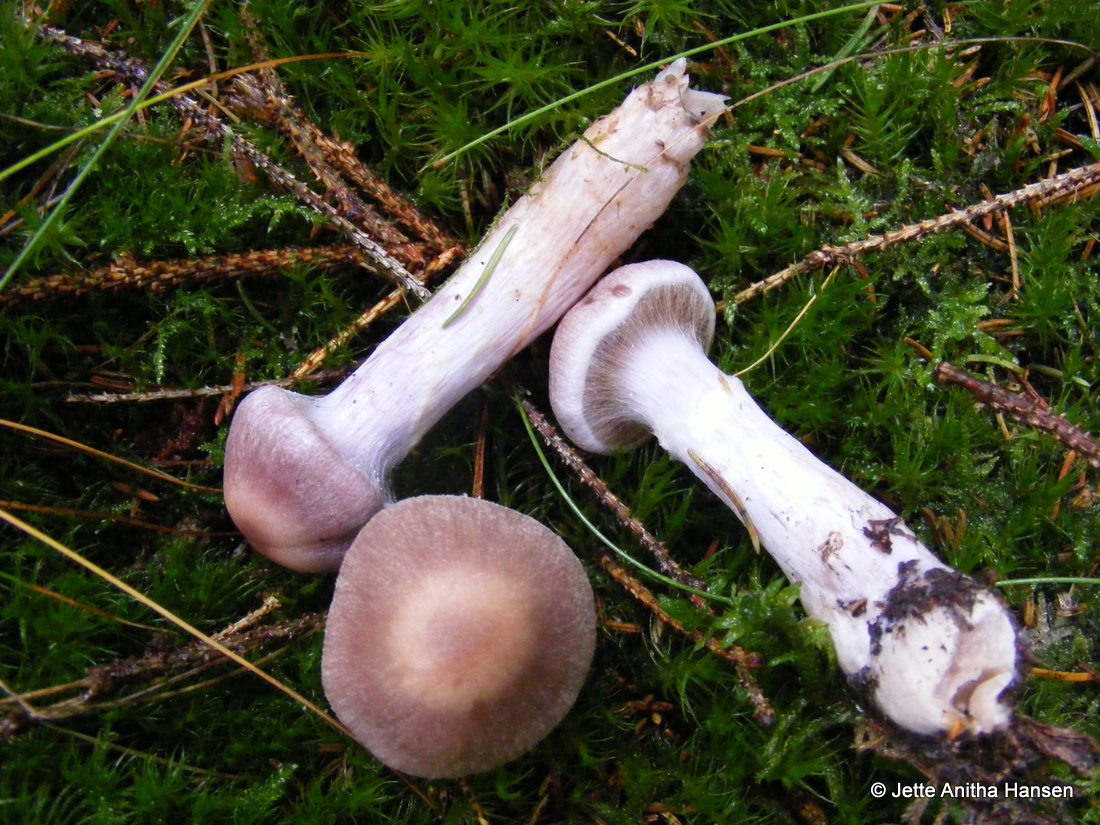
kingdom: Fungi
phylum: Basidiomycota
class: Agaricomycetes
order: Agaricales
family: Cortinariaceae
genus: Cortinarius
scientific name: Cortinarius malachius
